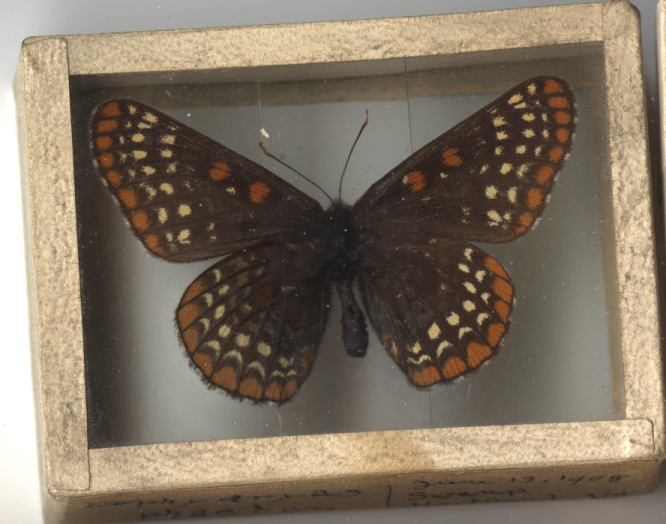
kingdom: Animalia
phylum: Arthropoda
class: Insecta
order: Lepidoptera
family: Nymphalidae
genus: Euphydryas
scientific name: Euphydryas phaeton
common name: Baltimore Checkerspot
